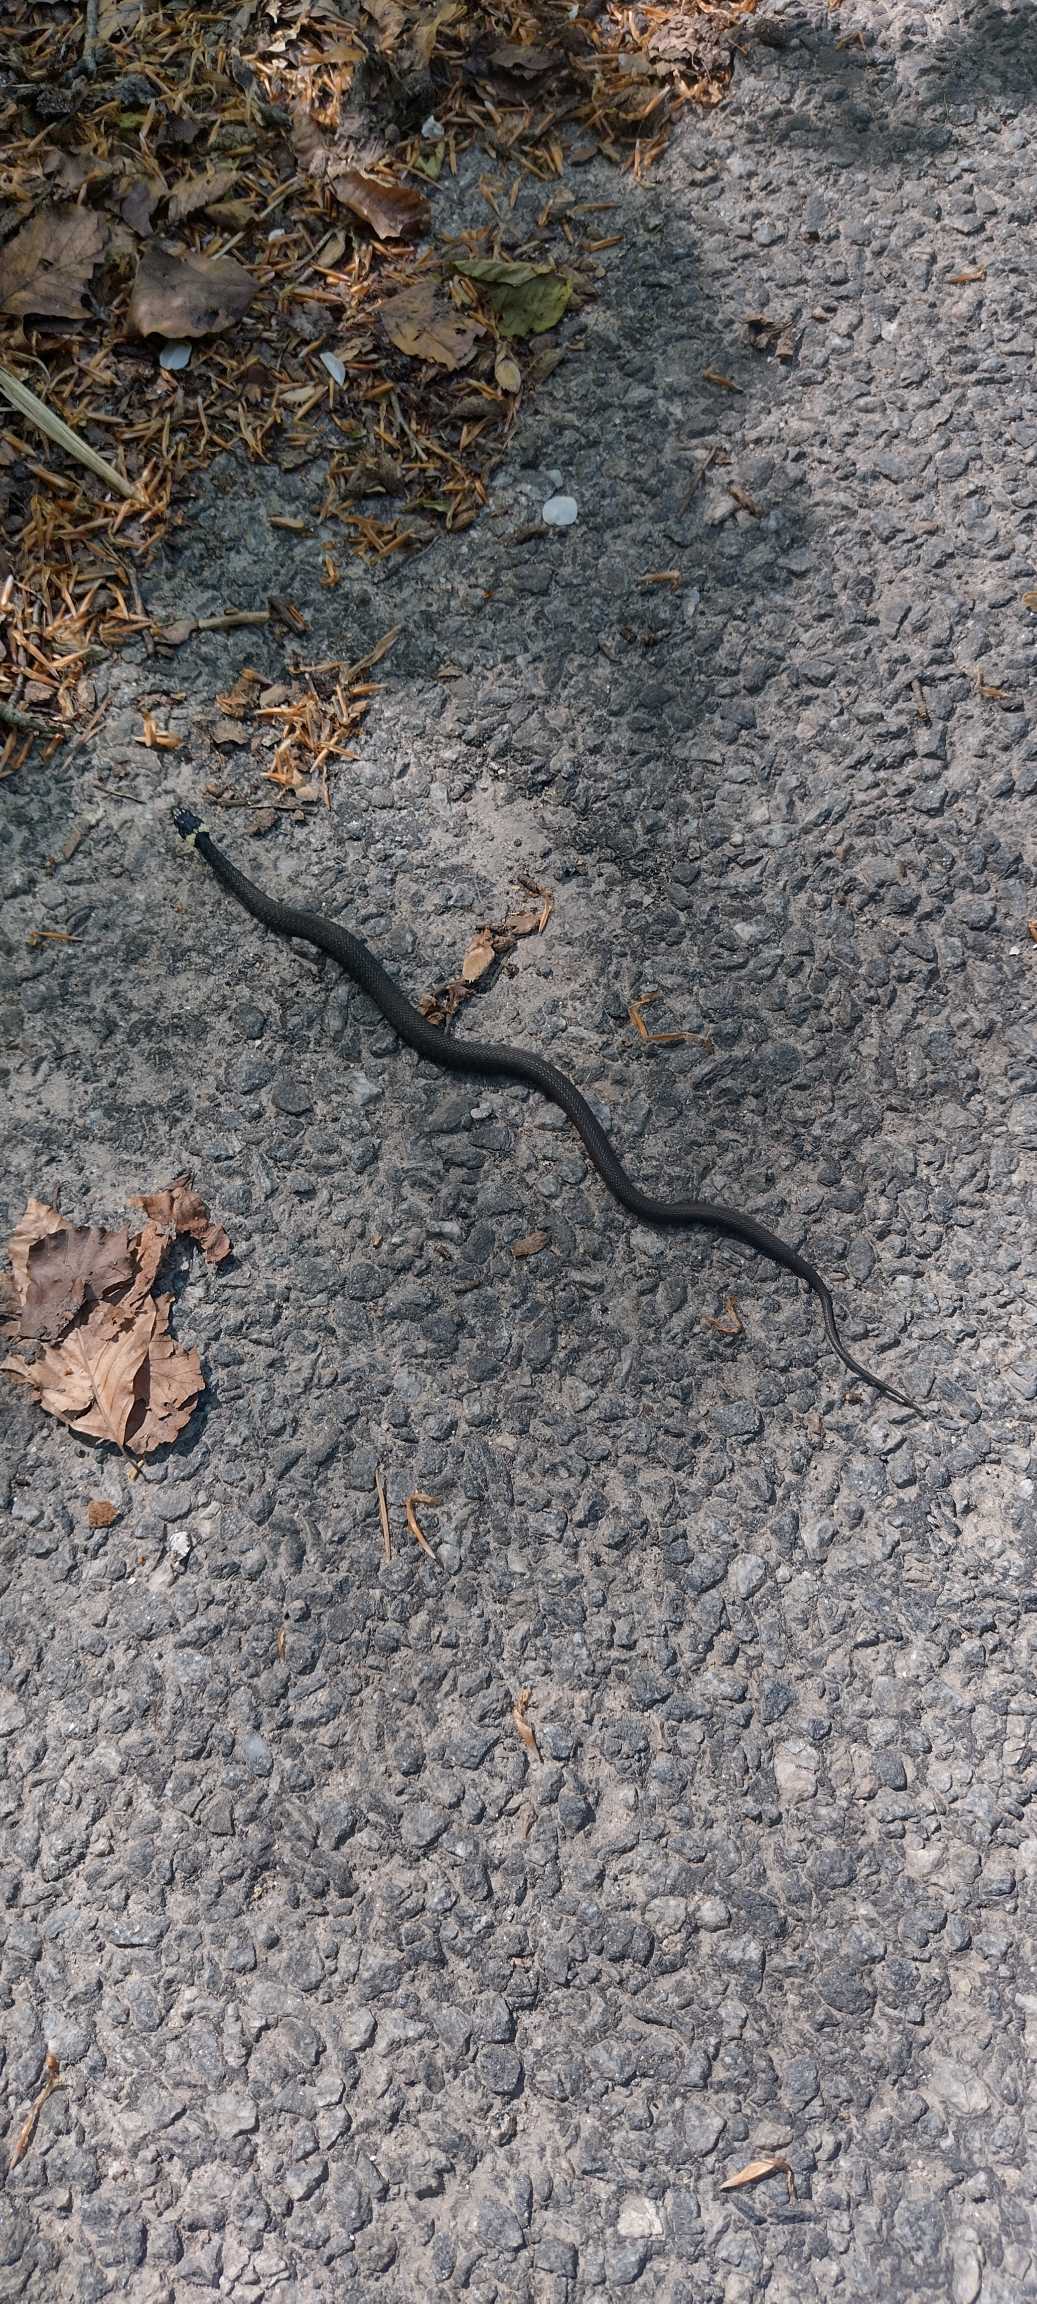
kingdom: Animalia
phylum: Chordata
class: Squamata
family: Colubridae
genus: Natrix
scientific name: Natrix natrix
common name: Snog
